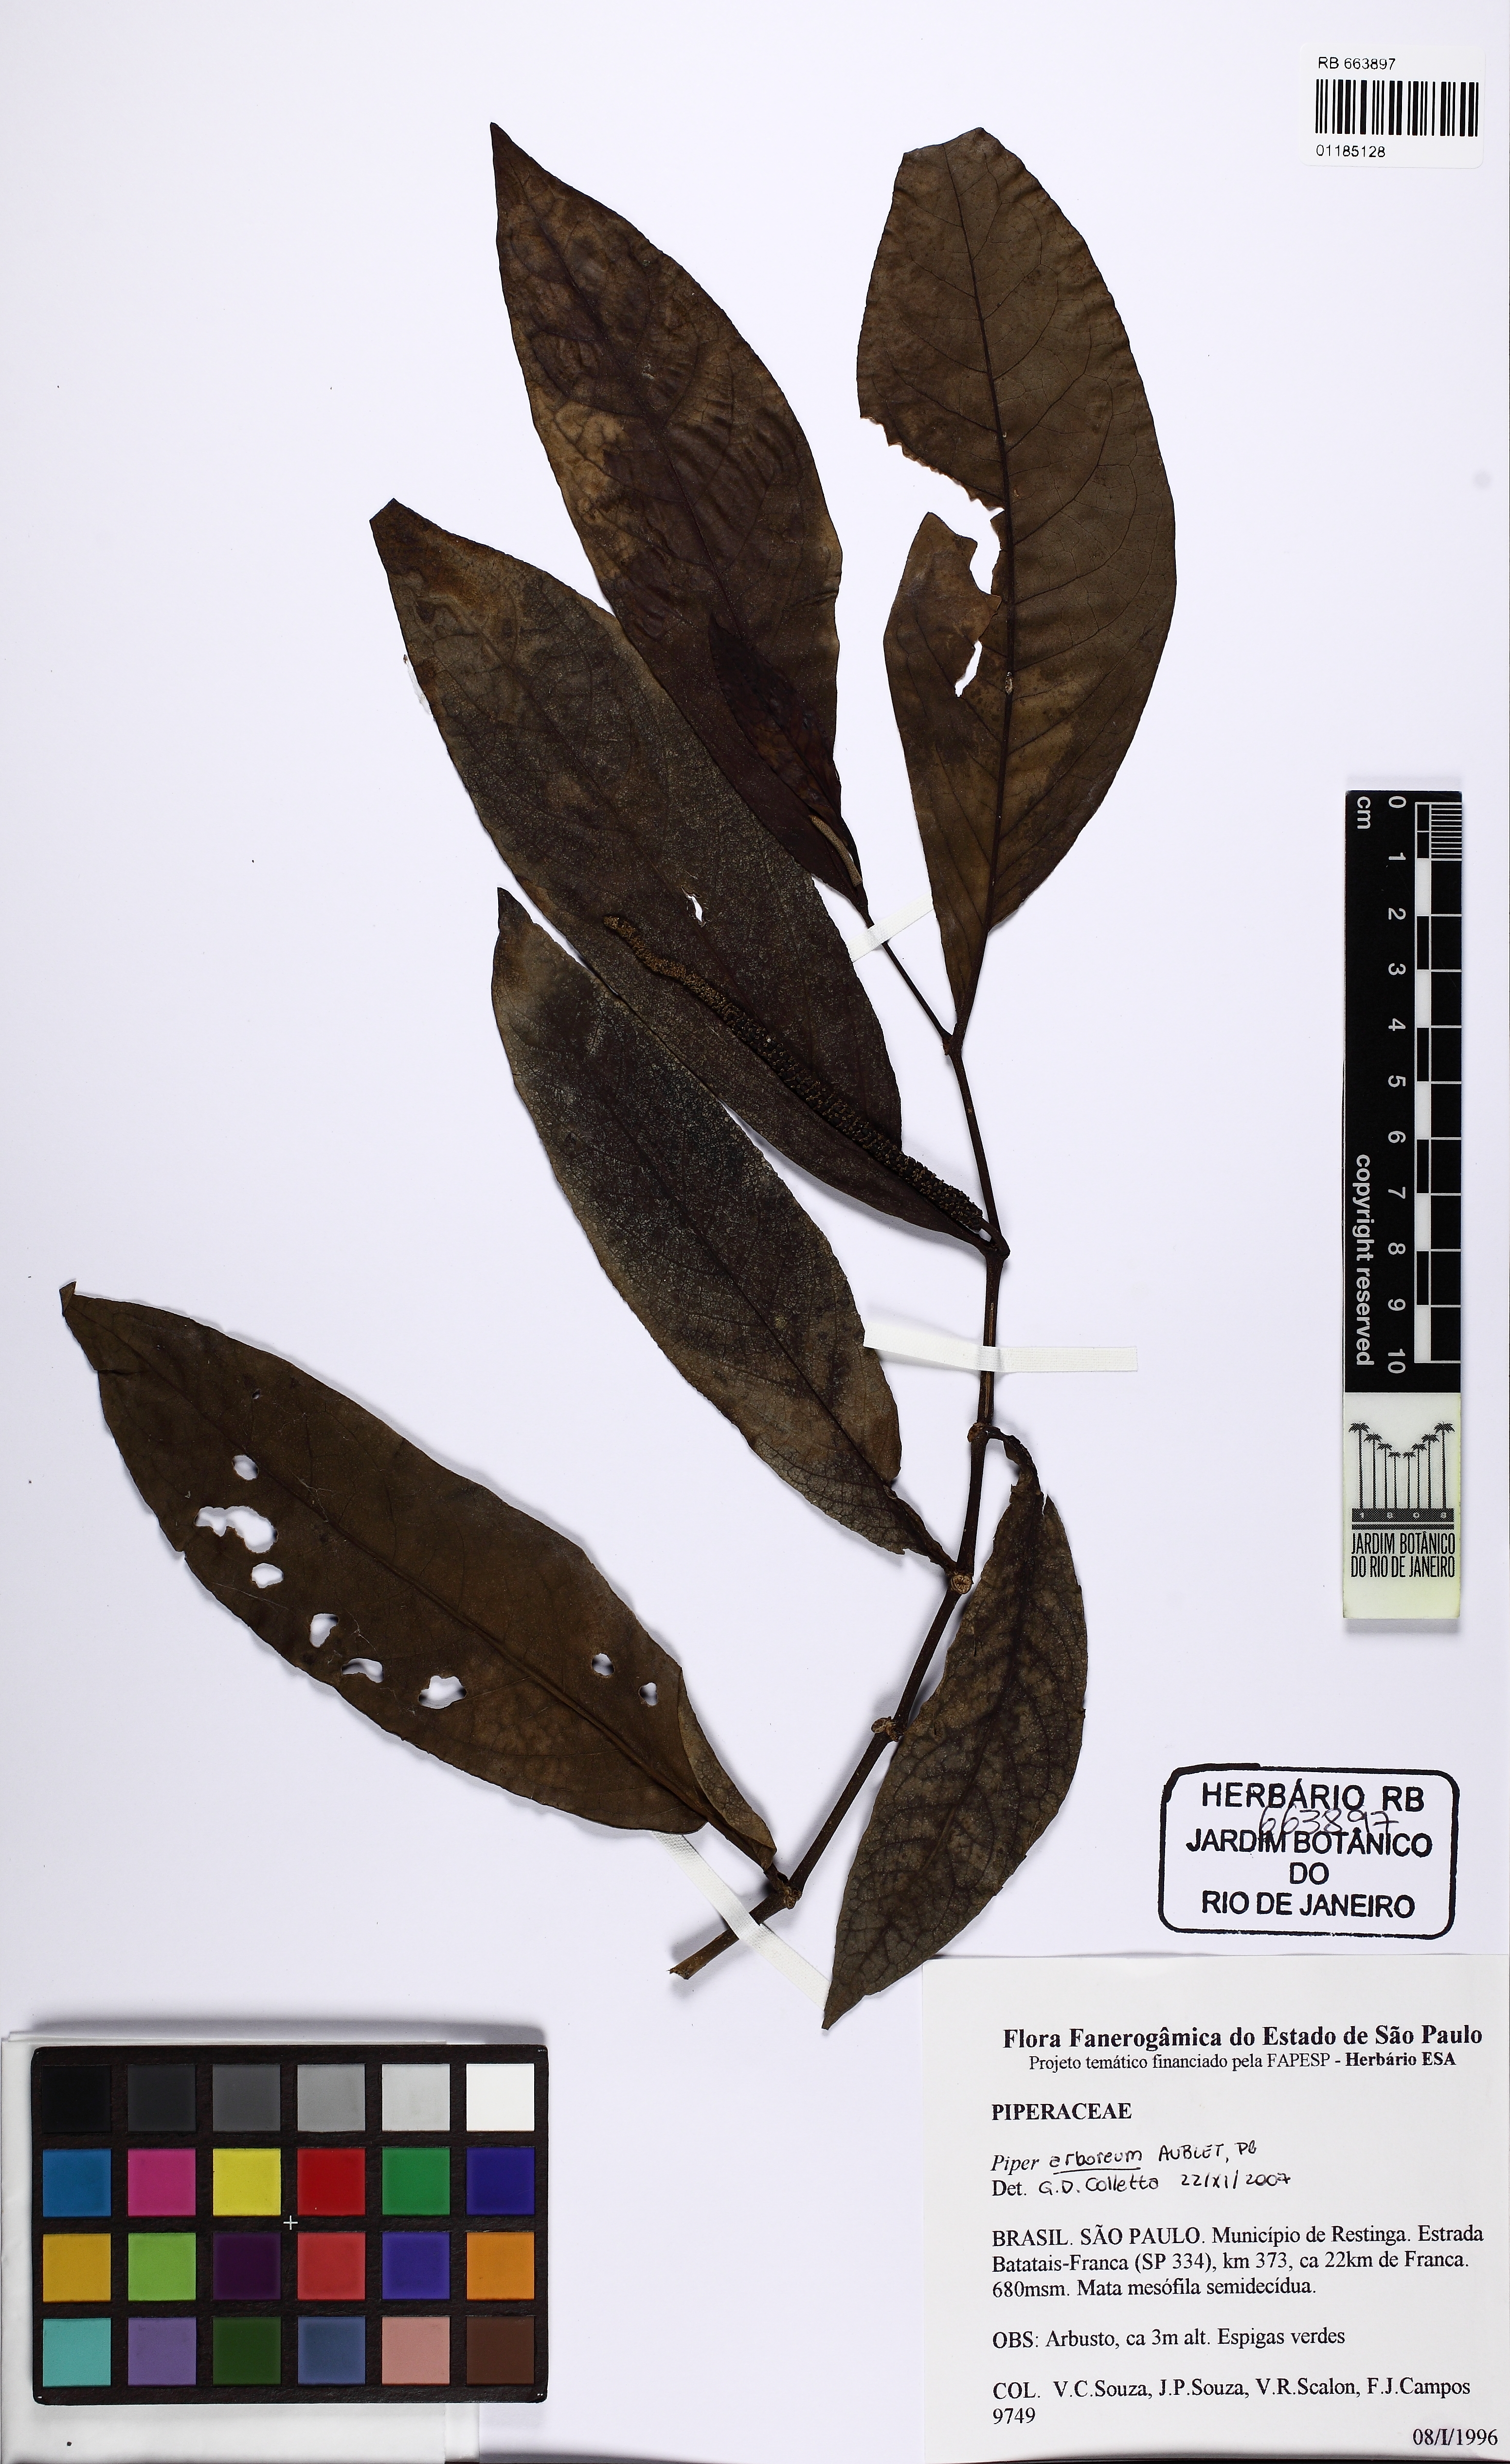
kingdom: Plantae
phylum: Tracheophyta
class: Magnoliopsida
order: Piperales
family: Piperaceae
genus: Piper
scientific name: Piper arboreum
